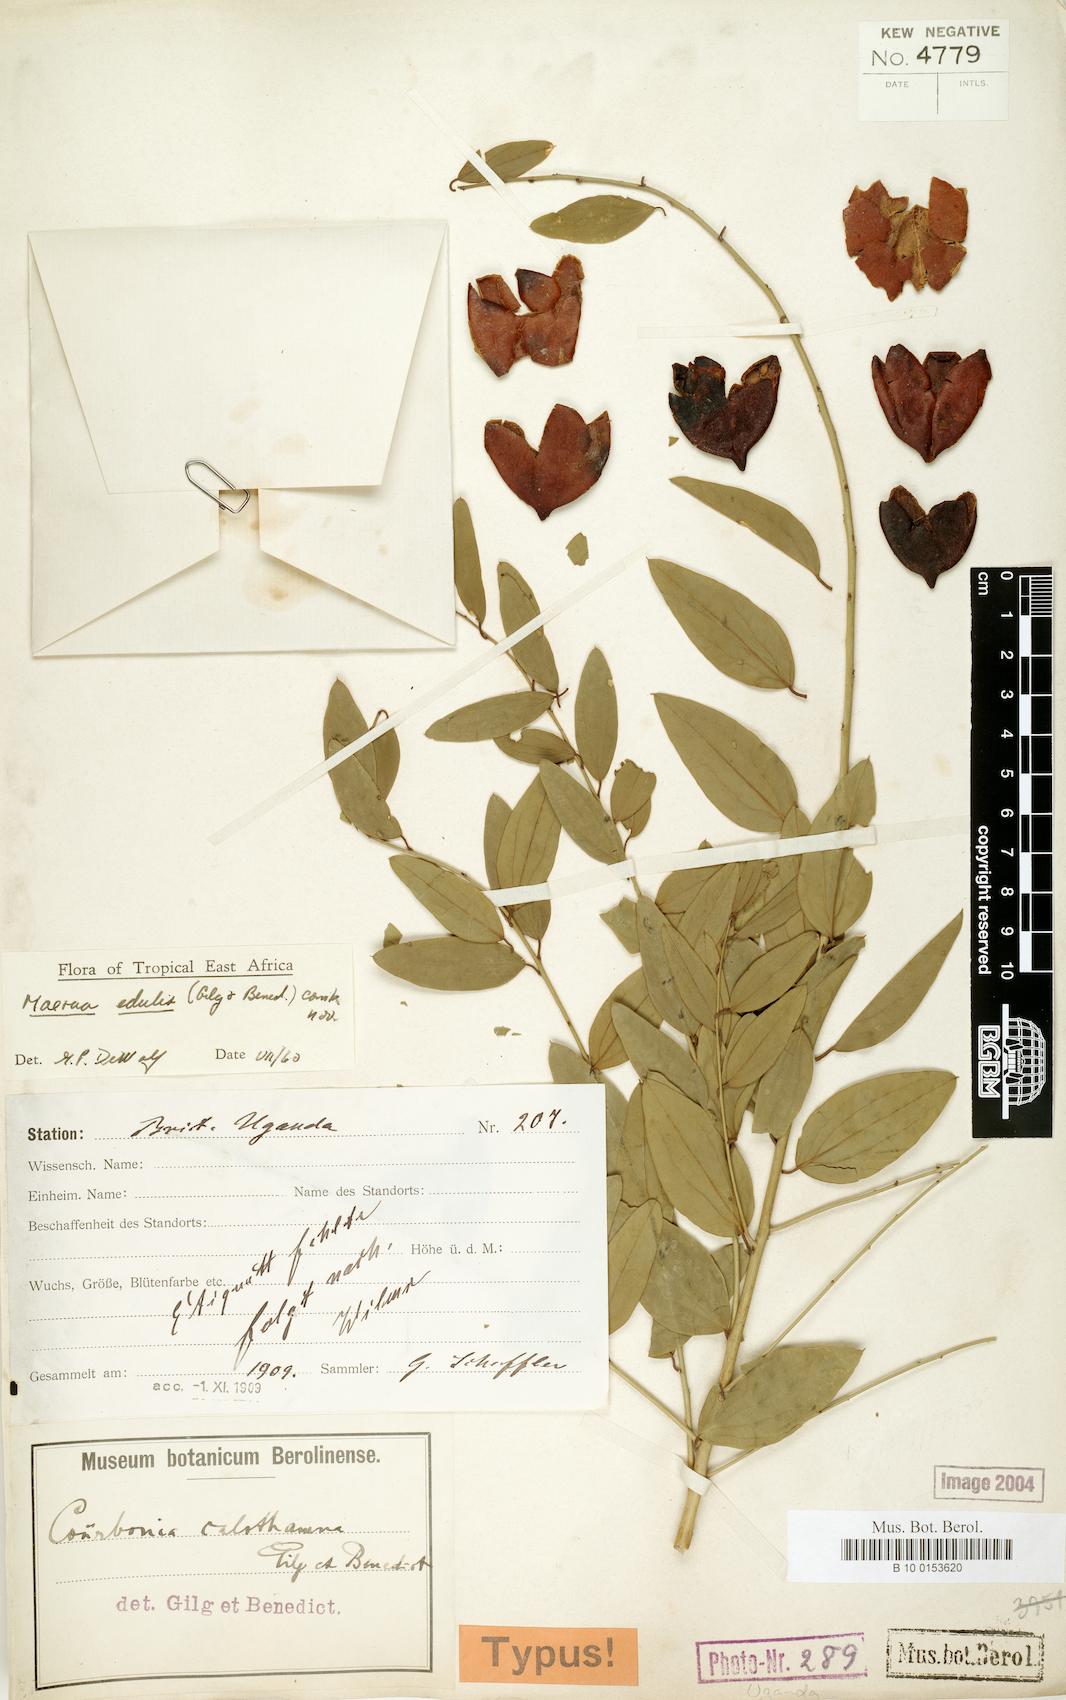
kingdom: Plantae
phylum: Tracheophyta
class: Magnoliopsida
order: Brassicales
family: Capparaceae
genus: Maerua
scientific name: Maerua edulis
